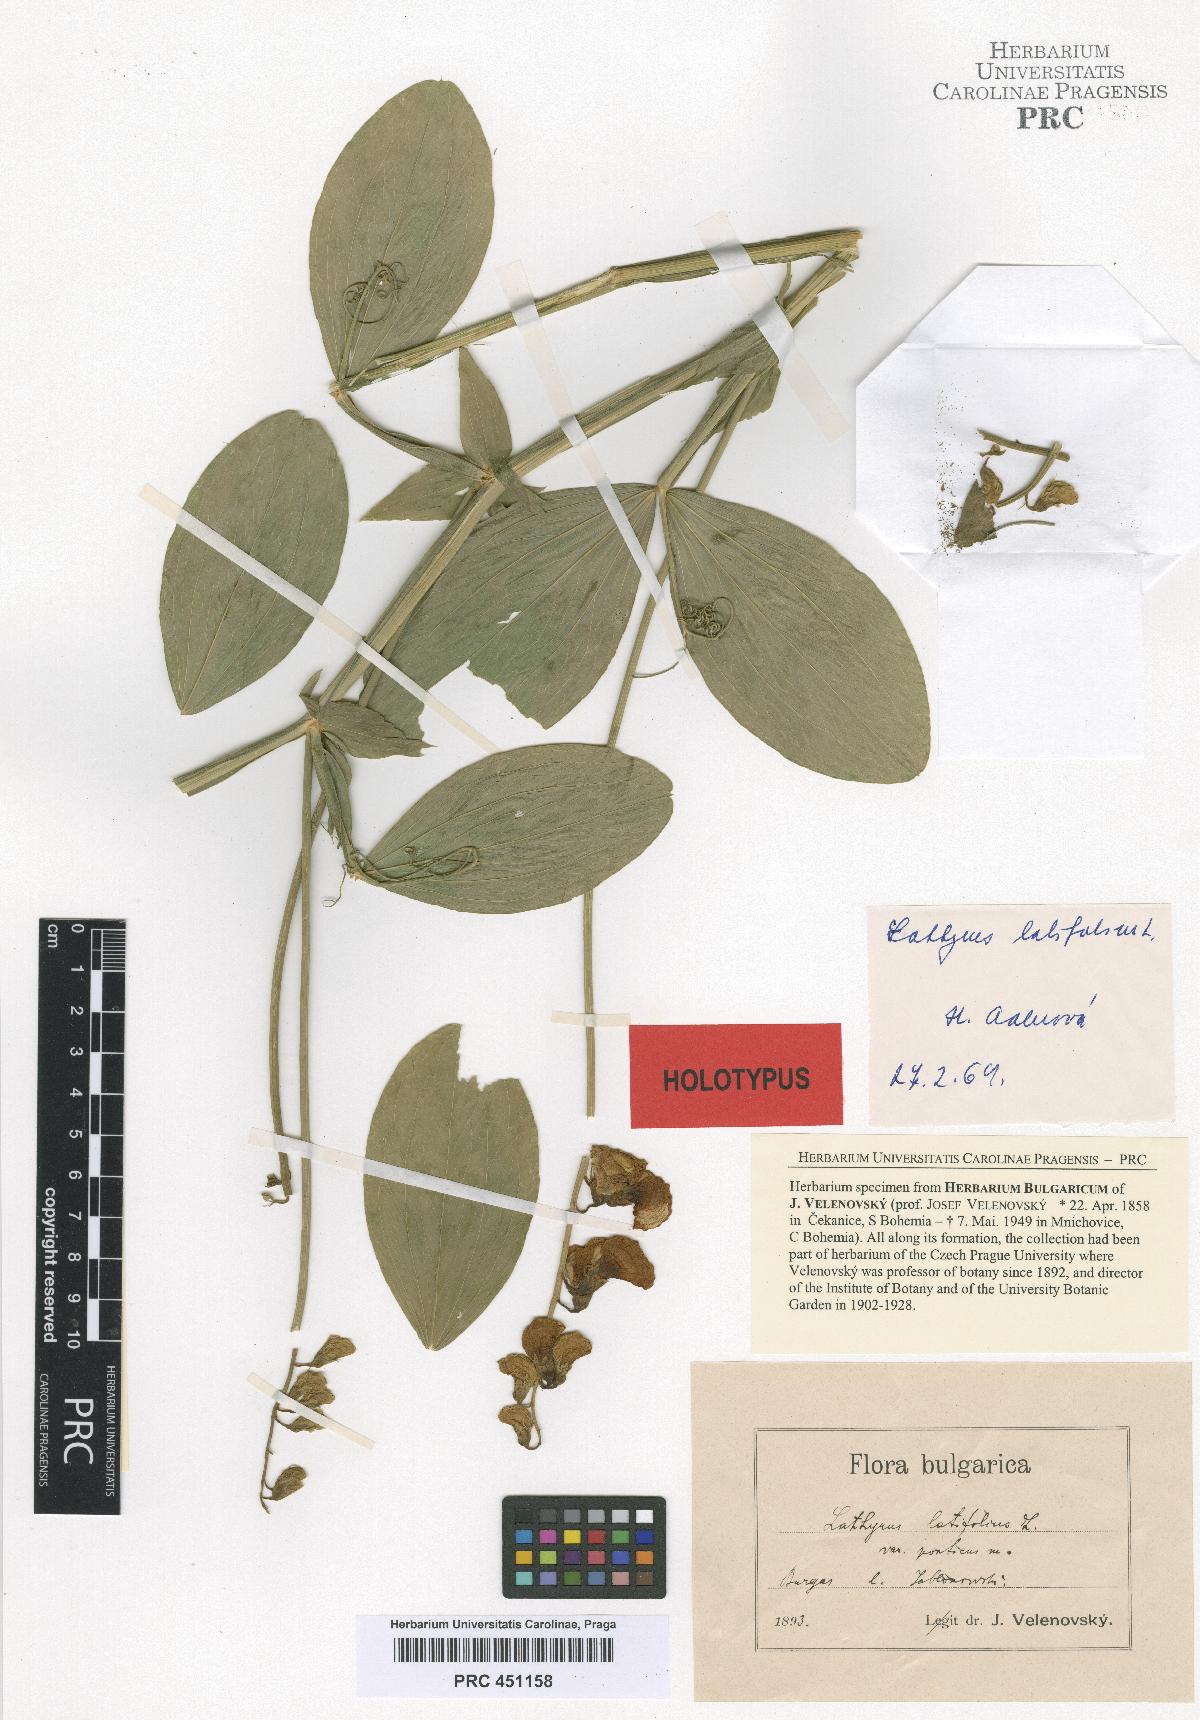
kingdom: Plantae
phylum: Tracheophyta
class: Magnoliopsida
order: Fabales
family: Fabaceae
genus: Lathyrus
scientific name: Lathyrus latifolius
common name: Perennial pea
